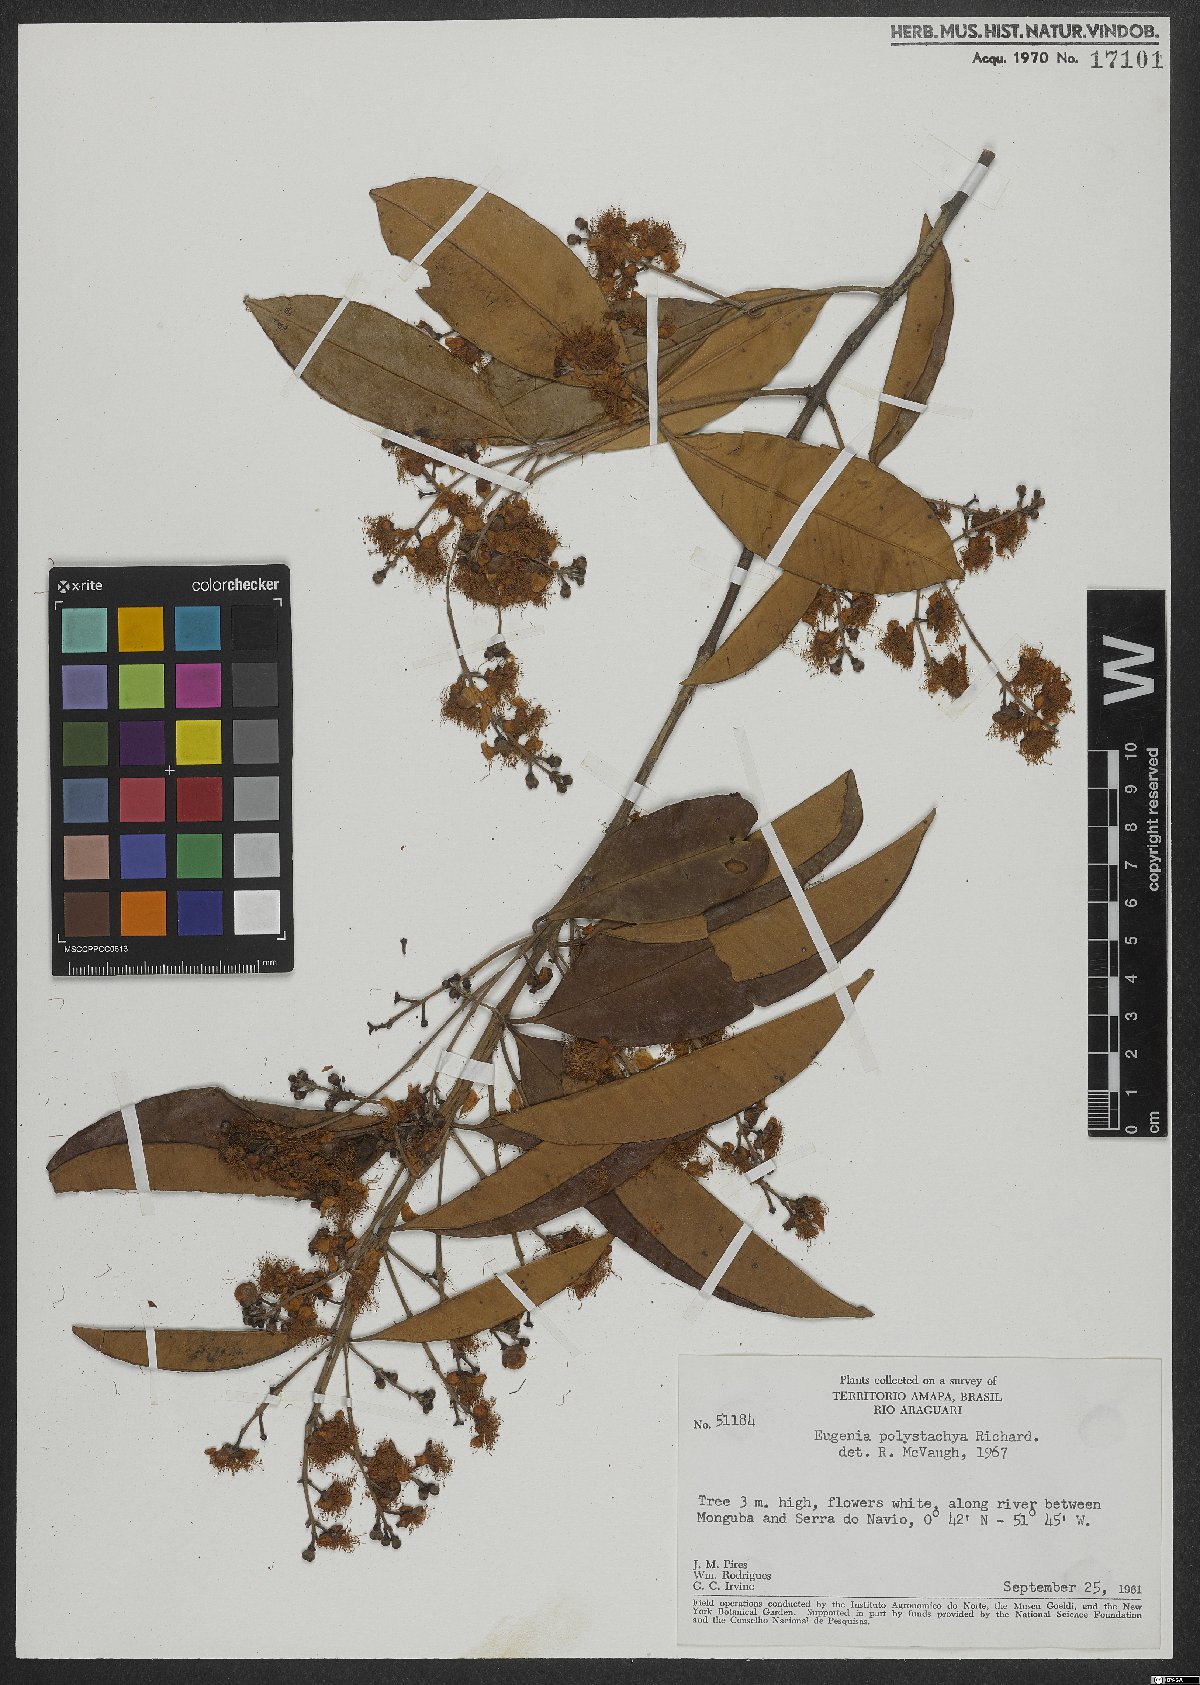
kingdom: Plantae
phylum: Tracheophyta
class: Magnoliopsida
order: Myrtales
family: Myrtaceae
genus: Eugenia
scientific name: Eugenia polystachya
